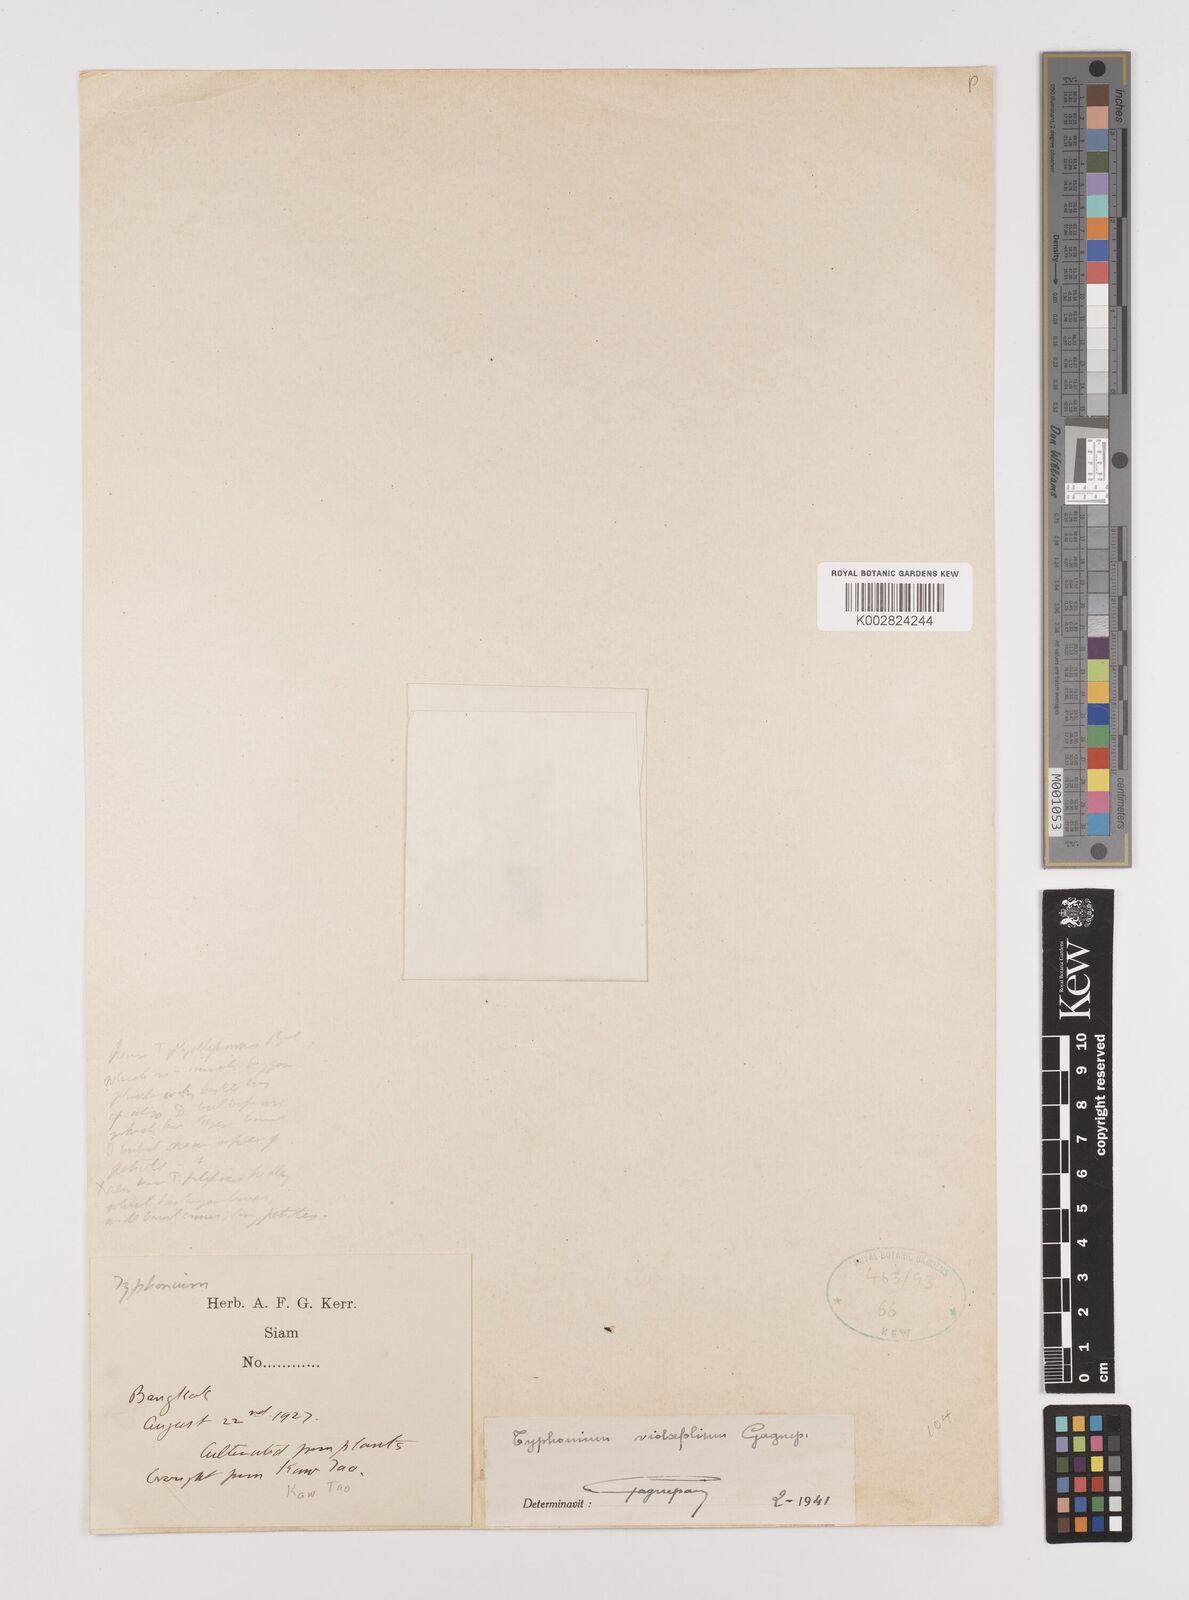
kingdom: Plantae
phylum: Tracheophyta
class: Liliopsida
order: Alismatales
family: Araceae
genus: Typhonium
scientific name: Typhonium violifolium
